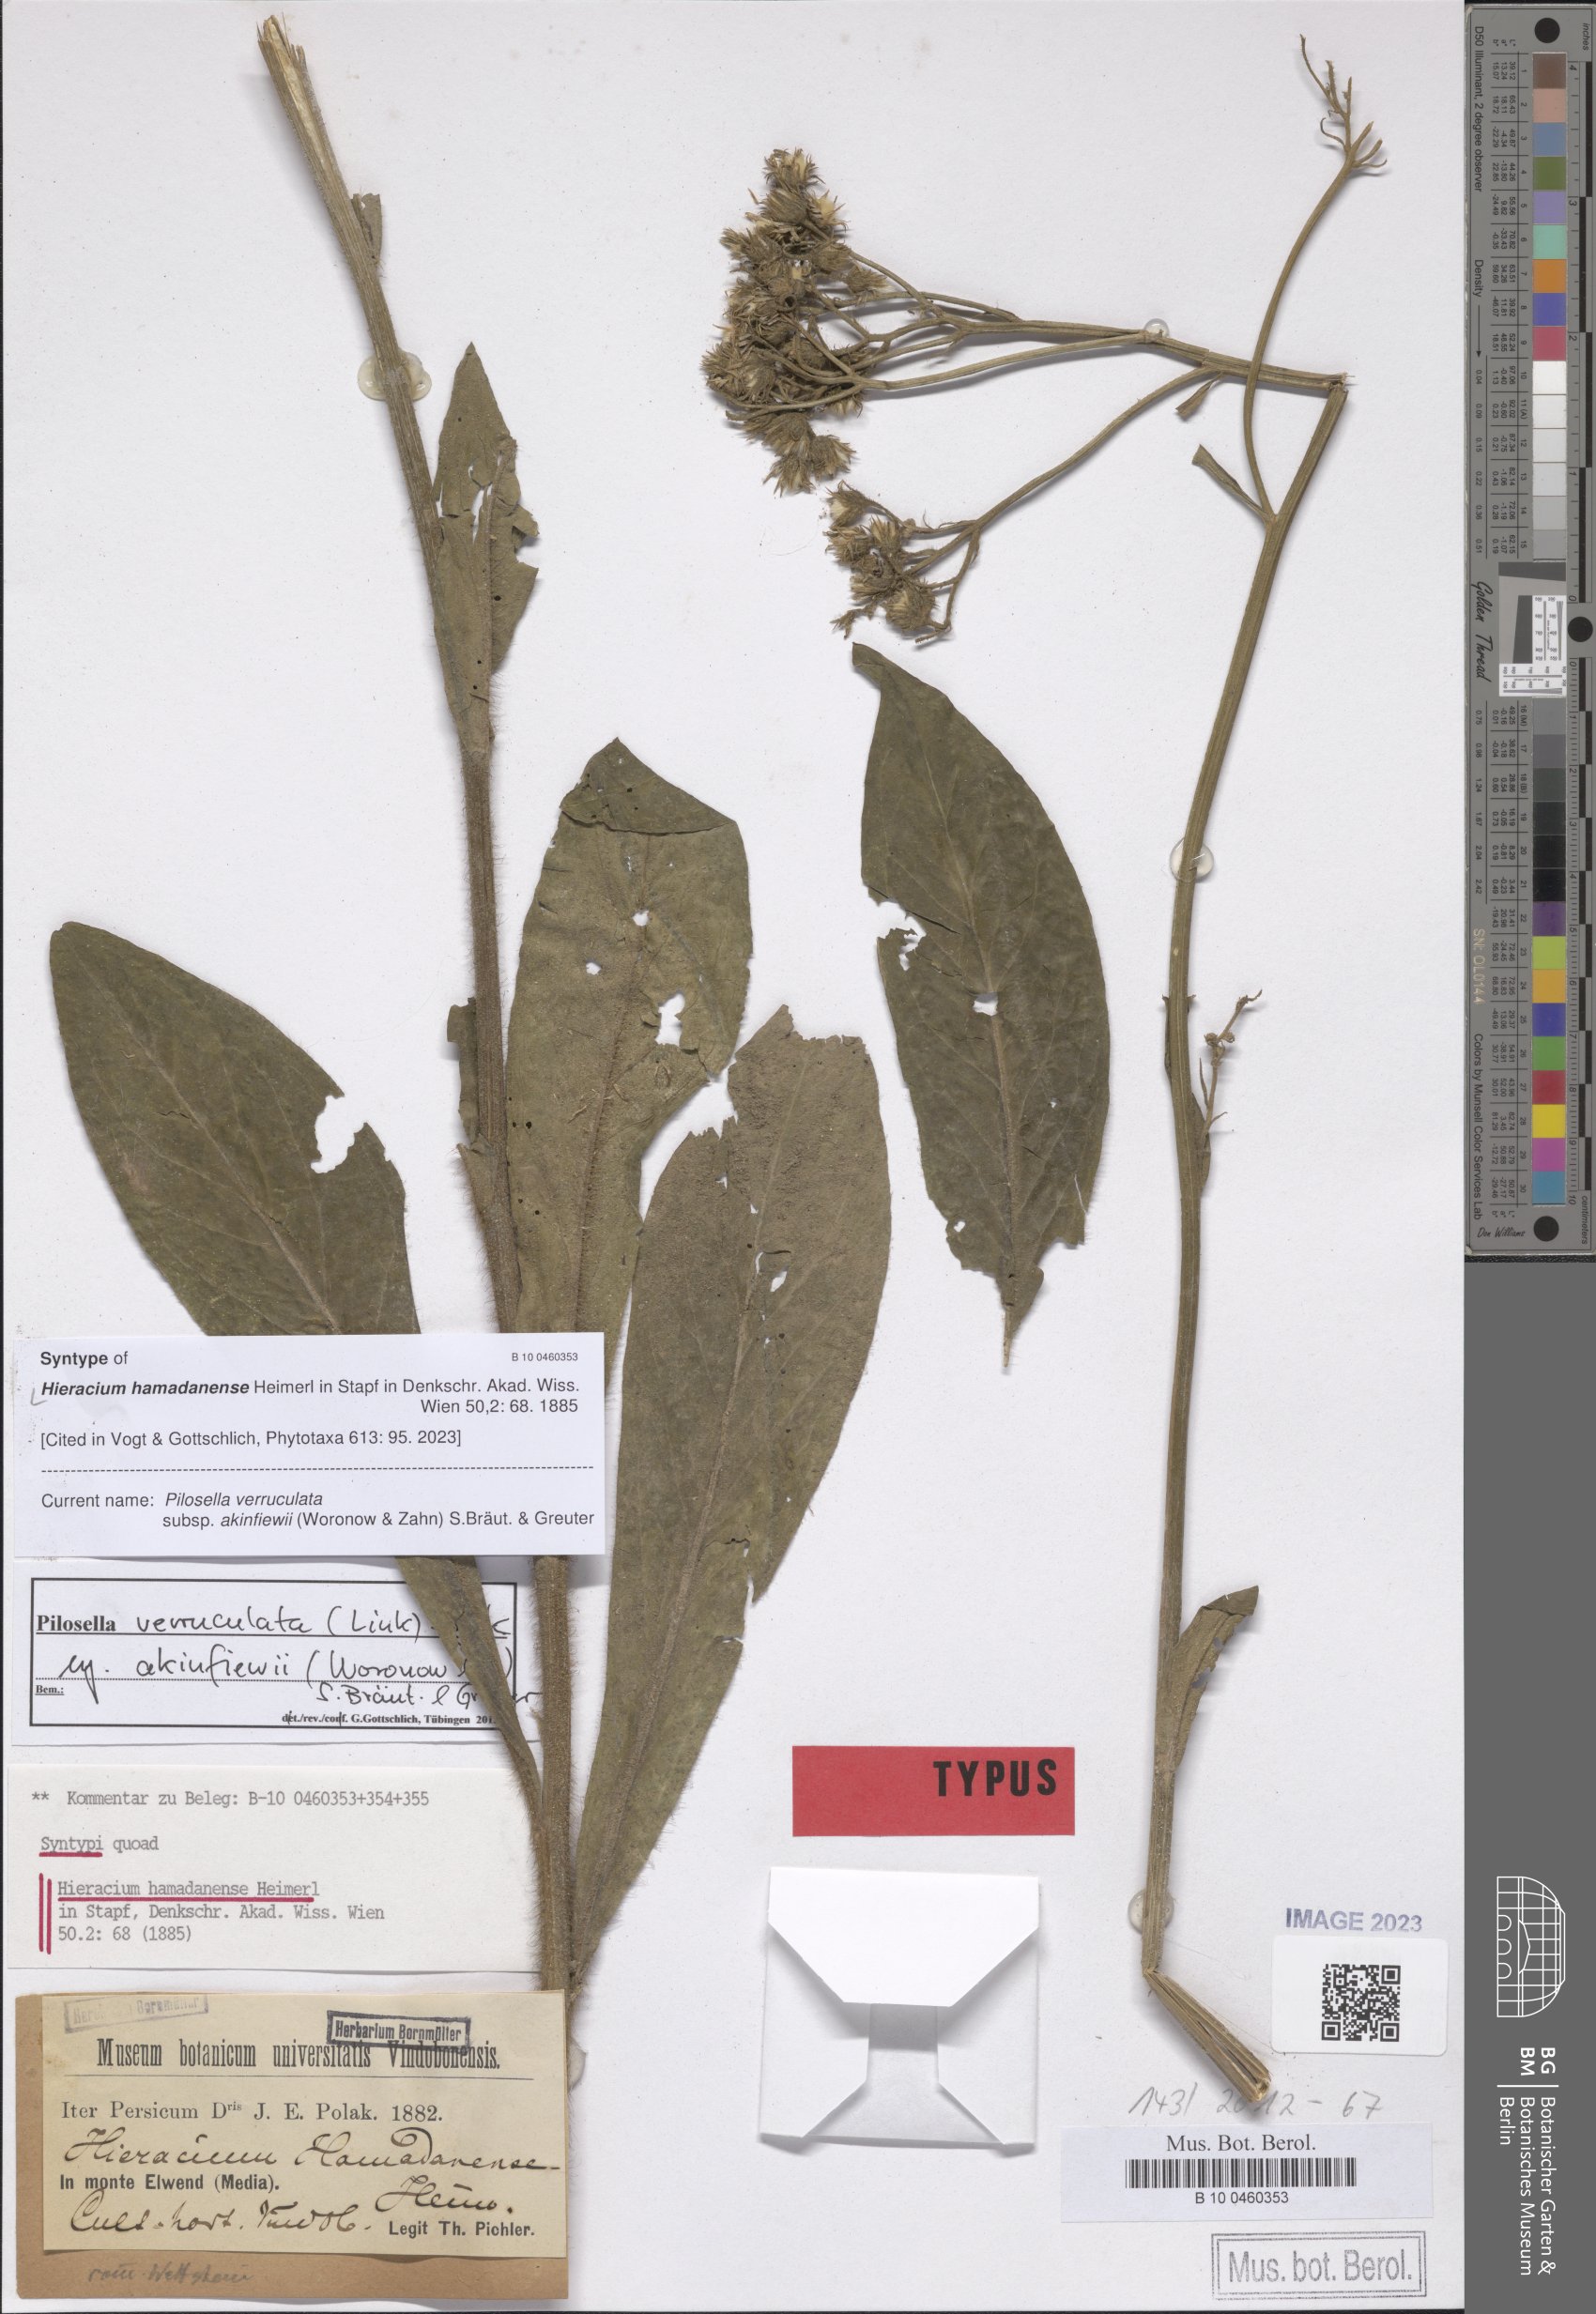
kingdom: Plantae
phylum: Tracheophyta
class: Magnoliopsida
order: Asterales
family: Asteraceae
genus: Pilosella
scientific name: Pilosella verruculata
